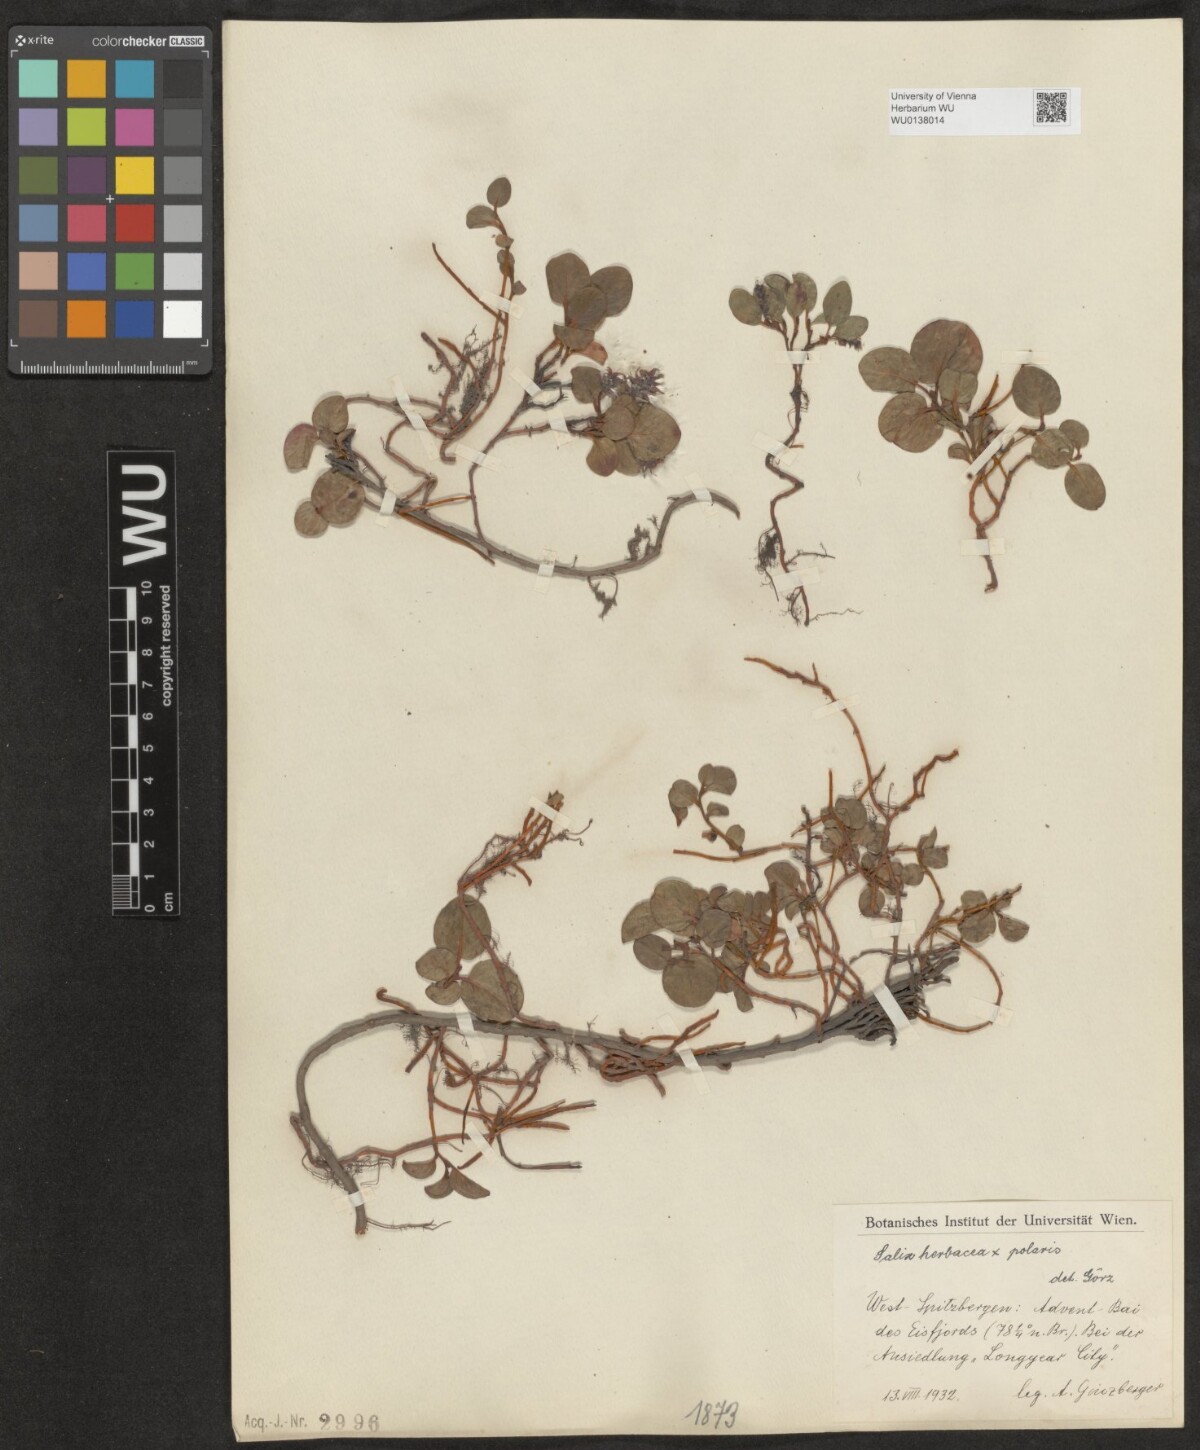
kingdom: Plantae
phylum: Tracheophyta
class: Magnoliopsida
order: Malpighiales
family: Salicaceae
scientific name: Salicaceae
